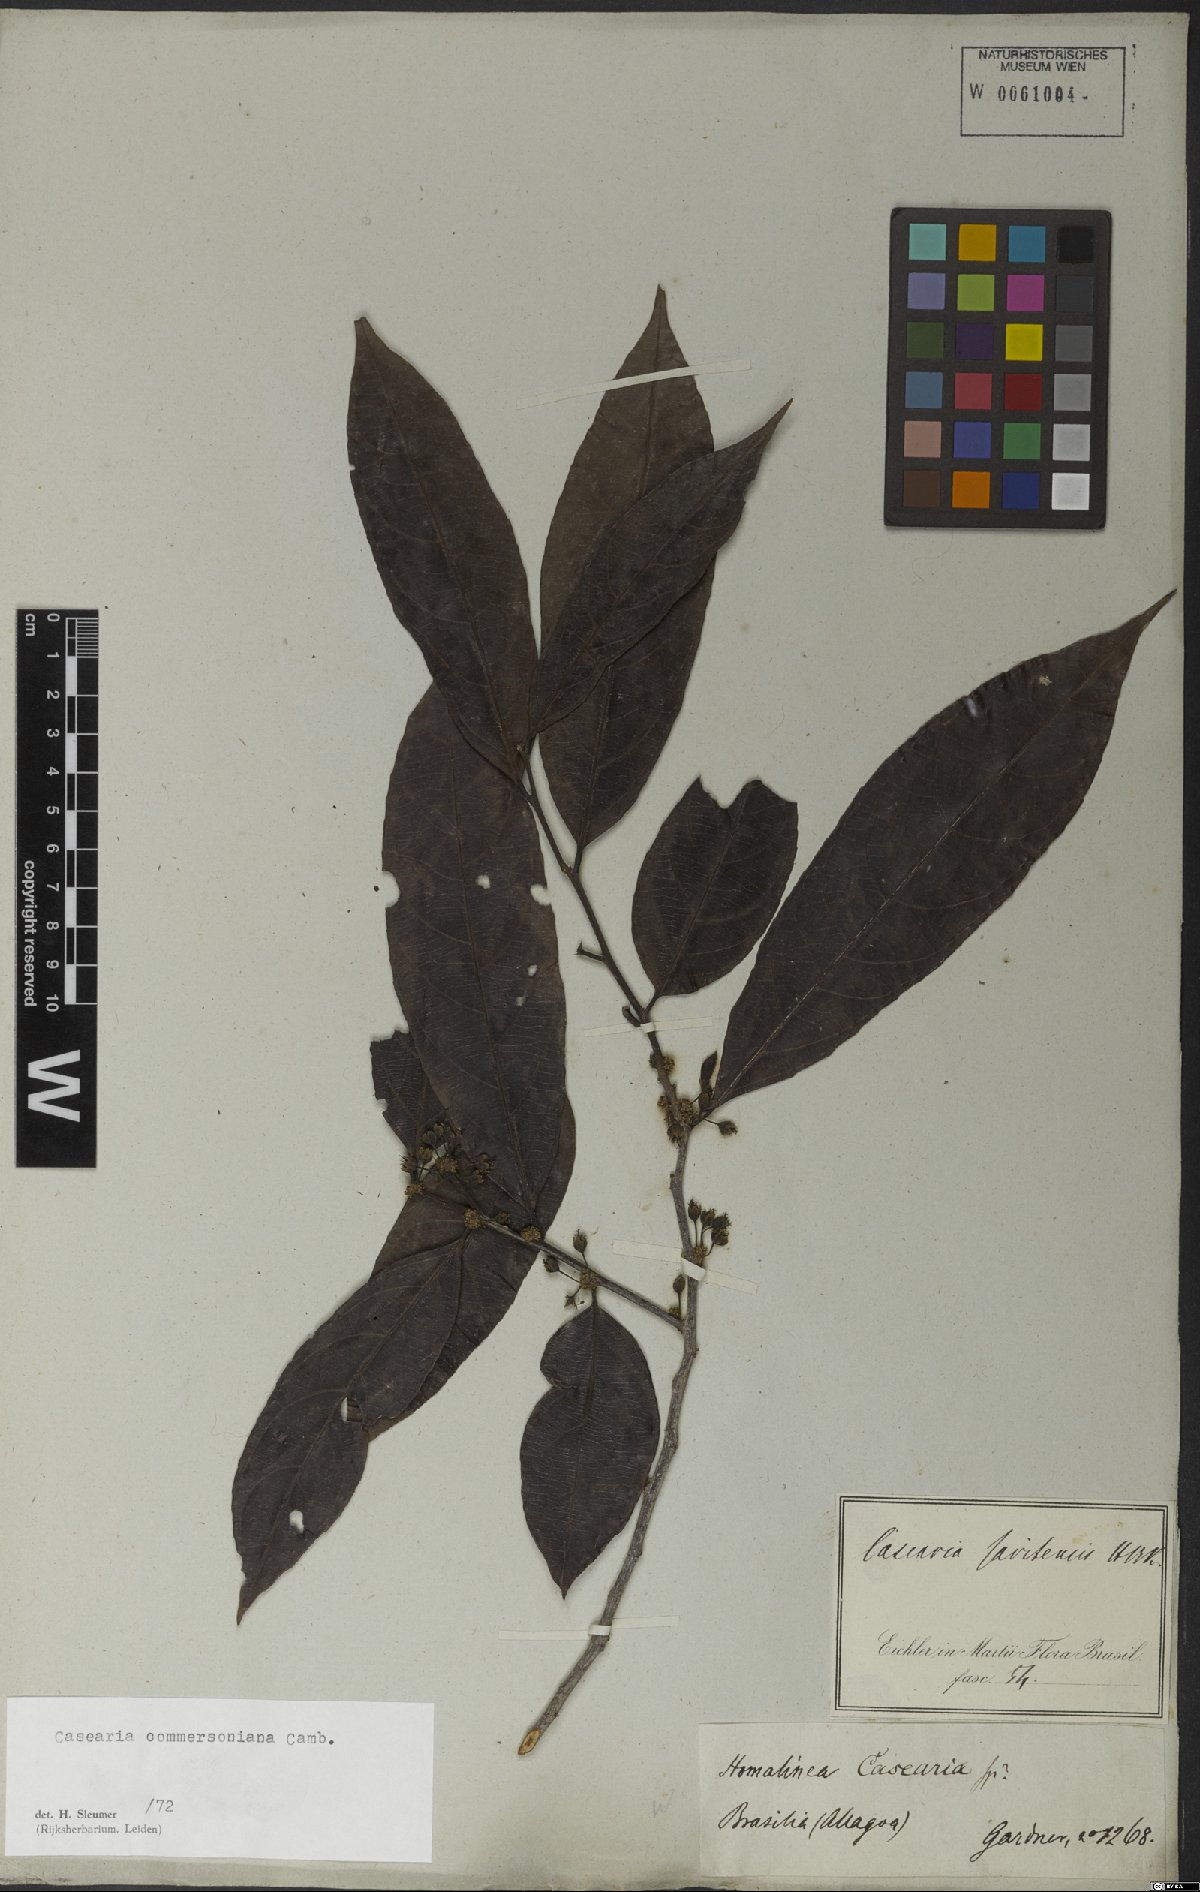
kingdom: Plantae
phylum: Tracheophyta
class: Magnoliopsida
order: Malpighiales
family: Salicaceae
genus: Piparea
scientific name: Piparea dentata
